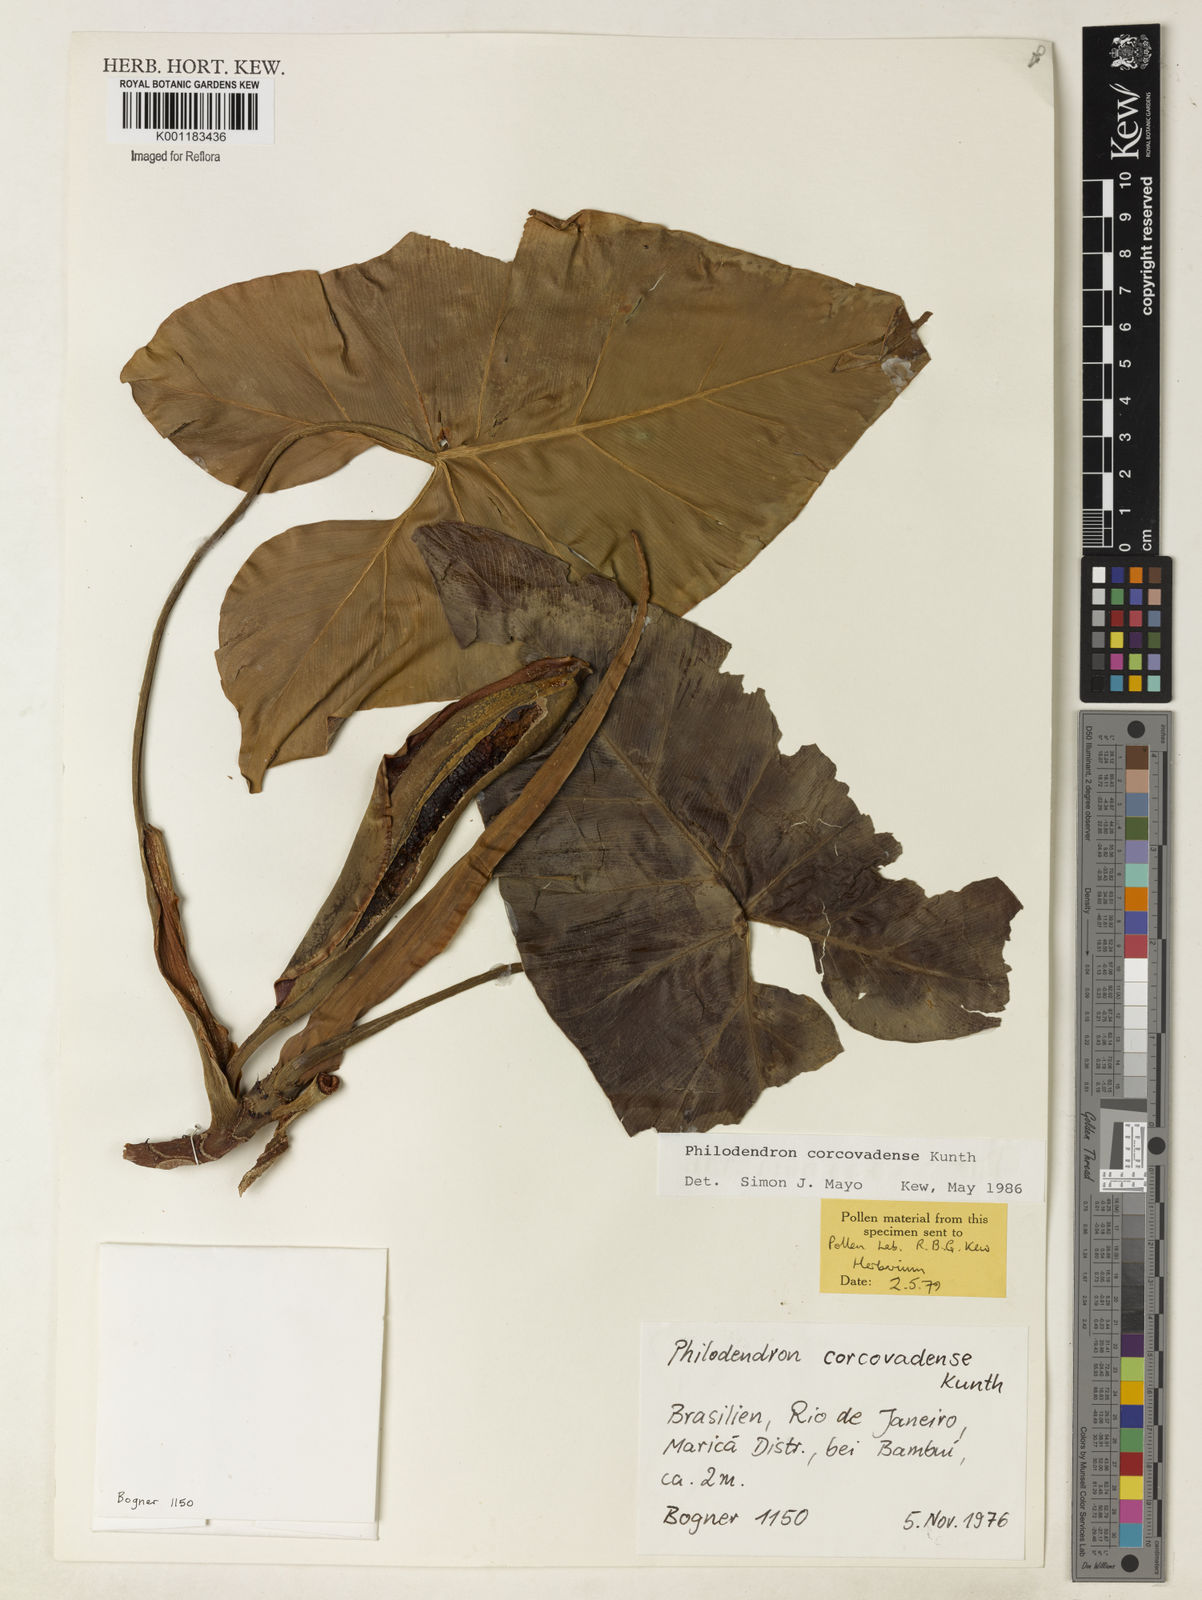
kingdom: Plantae
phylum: Tracheophyta
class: Liliopsida
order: Alismatales
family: Araceae
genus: Thaumatophyllum
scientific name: Thaumatophyllum corcovadense
